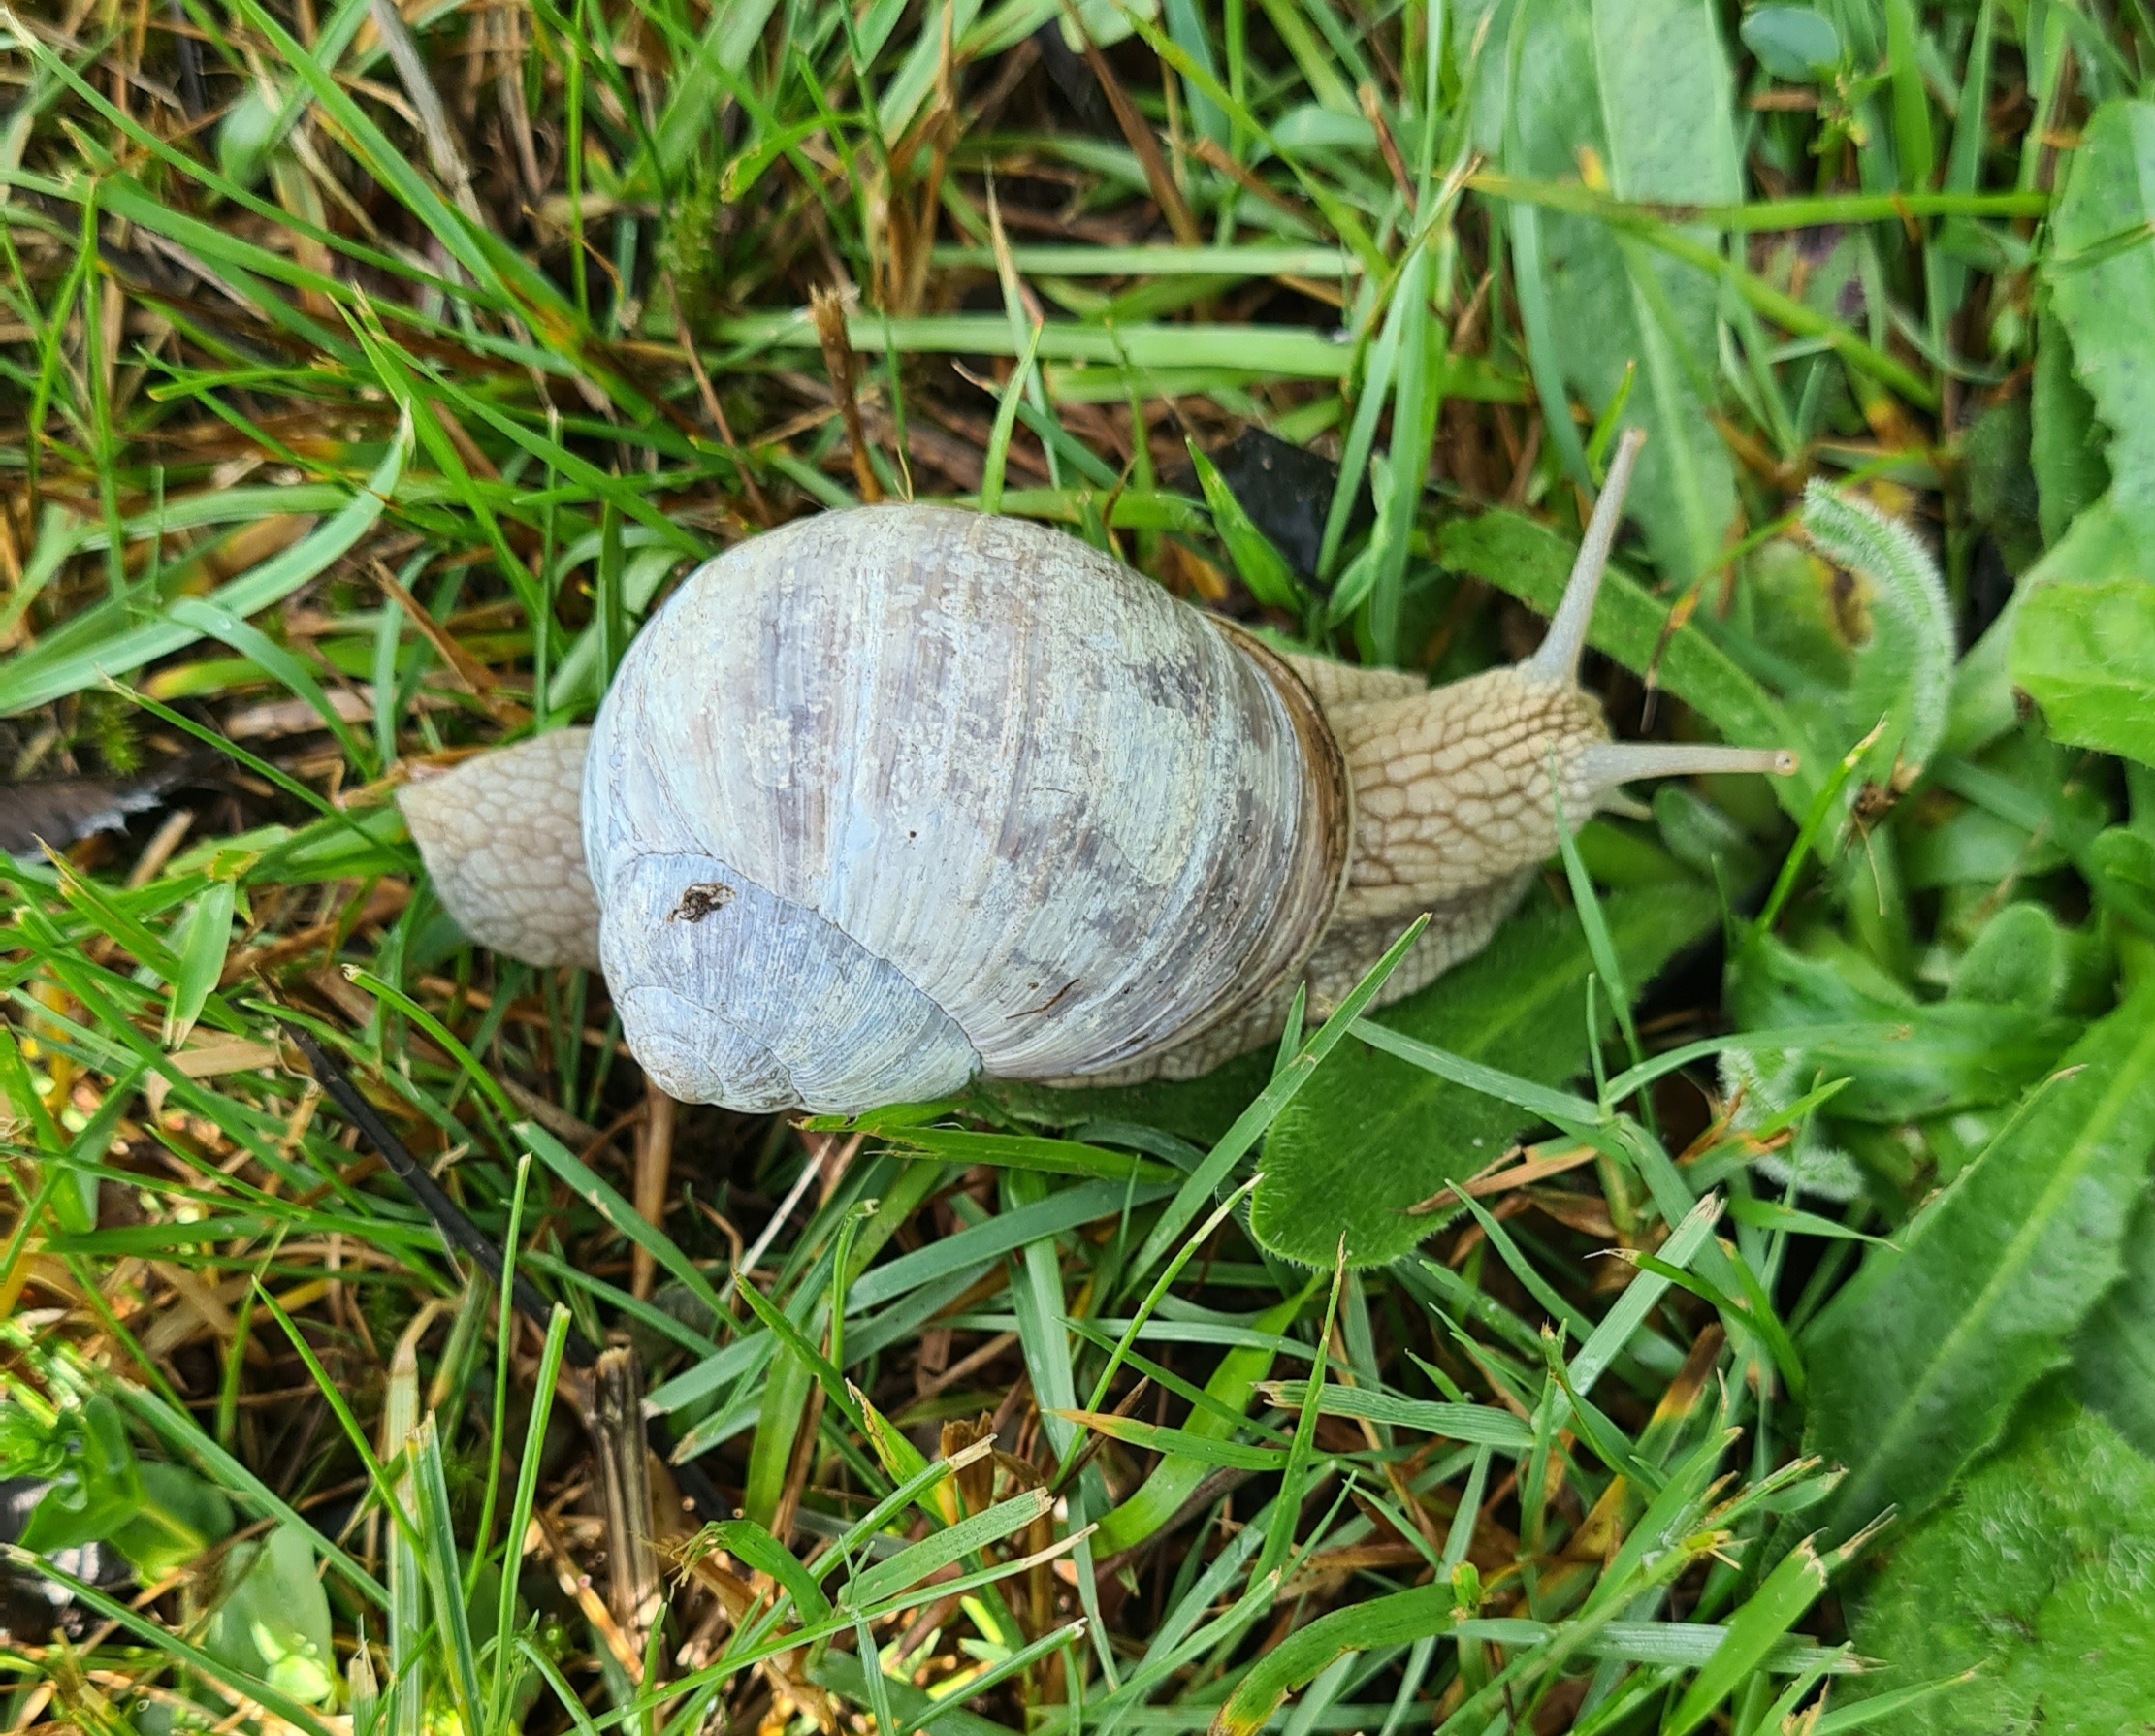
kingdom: Animalia
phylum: Mollusca
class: Gastropoda
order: Stylommatophora
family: Helicidae
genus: Helix
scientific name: Helix pomatia
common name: Vinbjergsnegl
